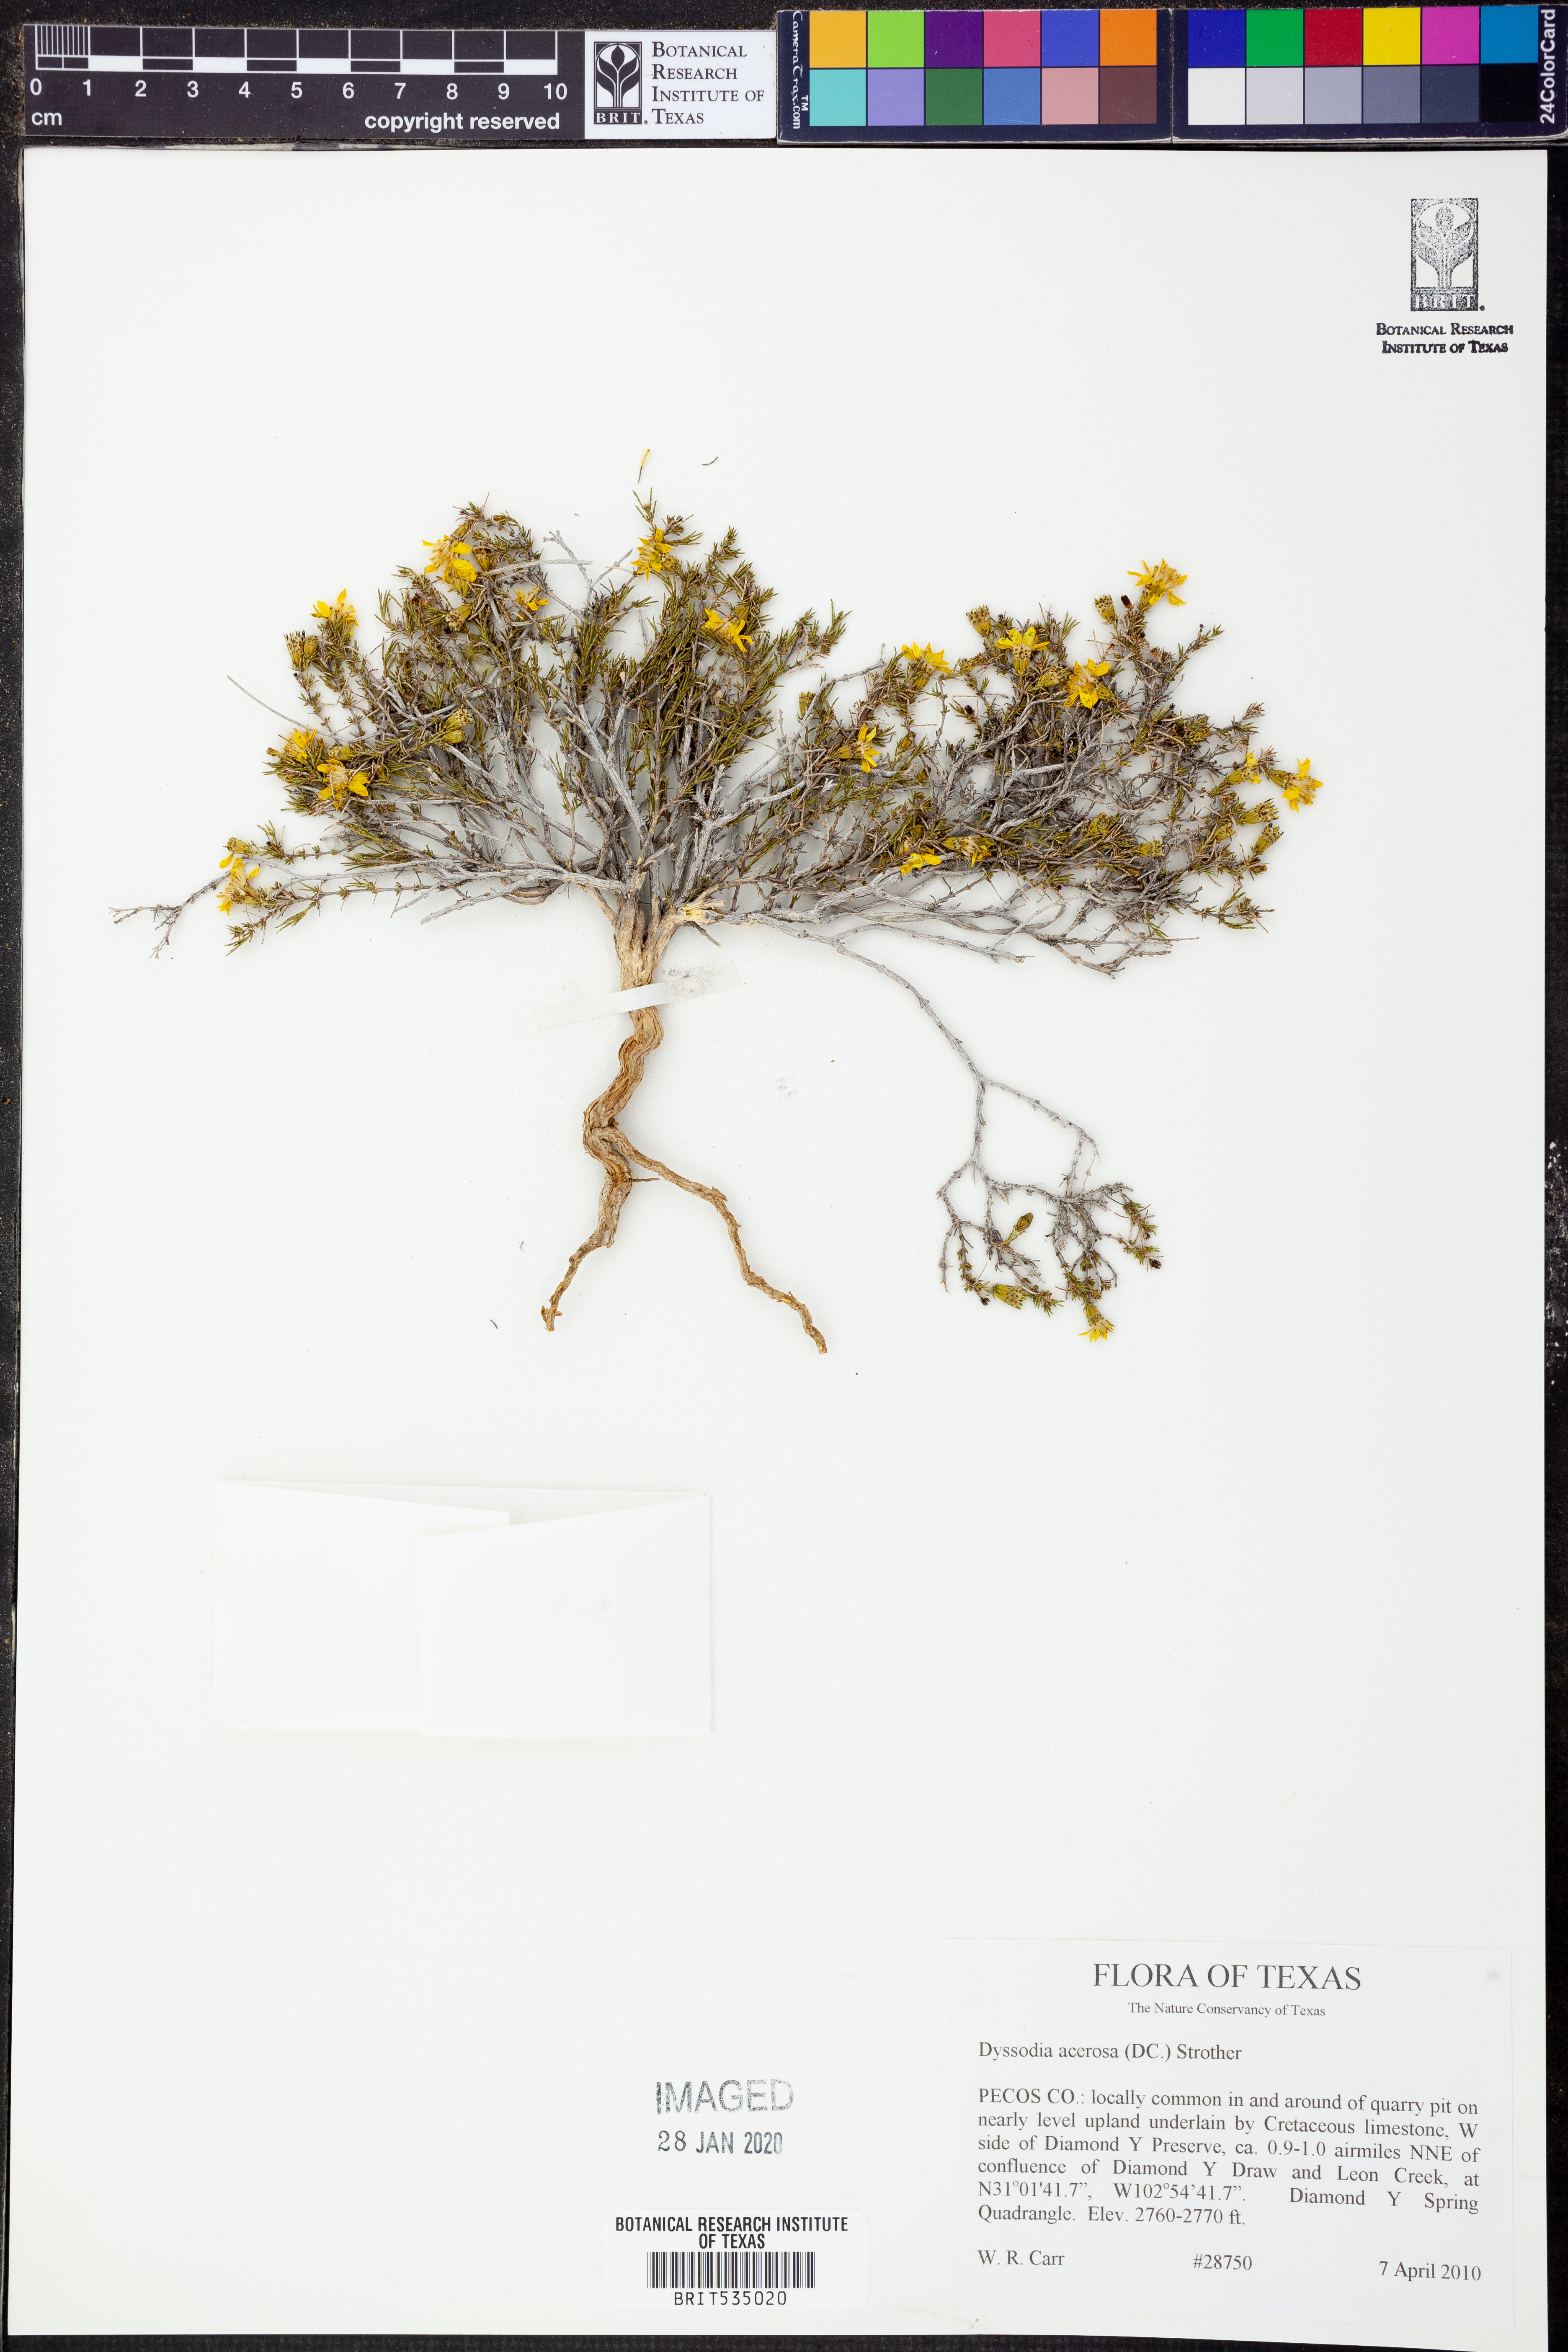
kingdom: Plantae
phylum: Tracheophyta
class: Magnoliopsida
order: Asterales
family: Asteraceae
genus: Thymophylla
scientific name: Thymophylla acerosa
